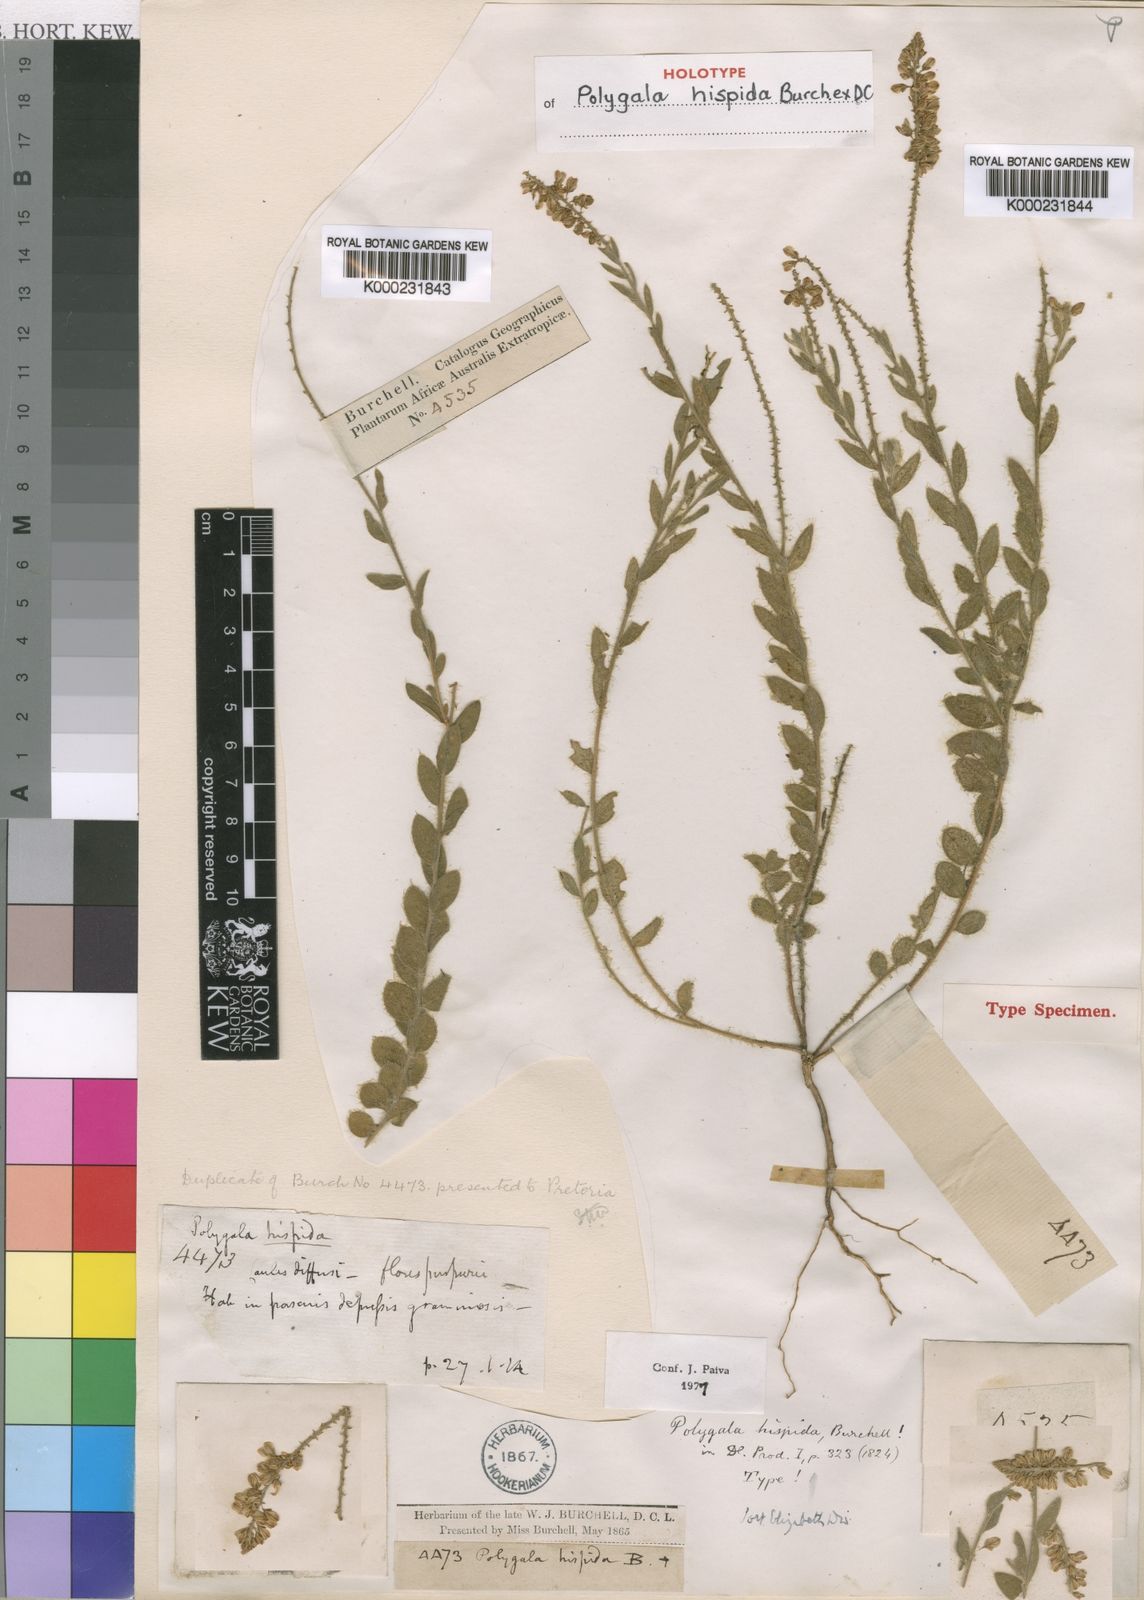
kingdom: Plantae
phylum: Tracheophyta
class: Magnoliopsida
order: Fabales
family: Polygalaceae
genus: Polygala
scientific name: Polygala hispida
